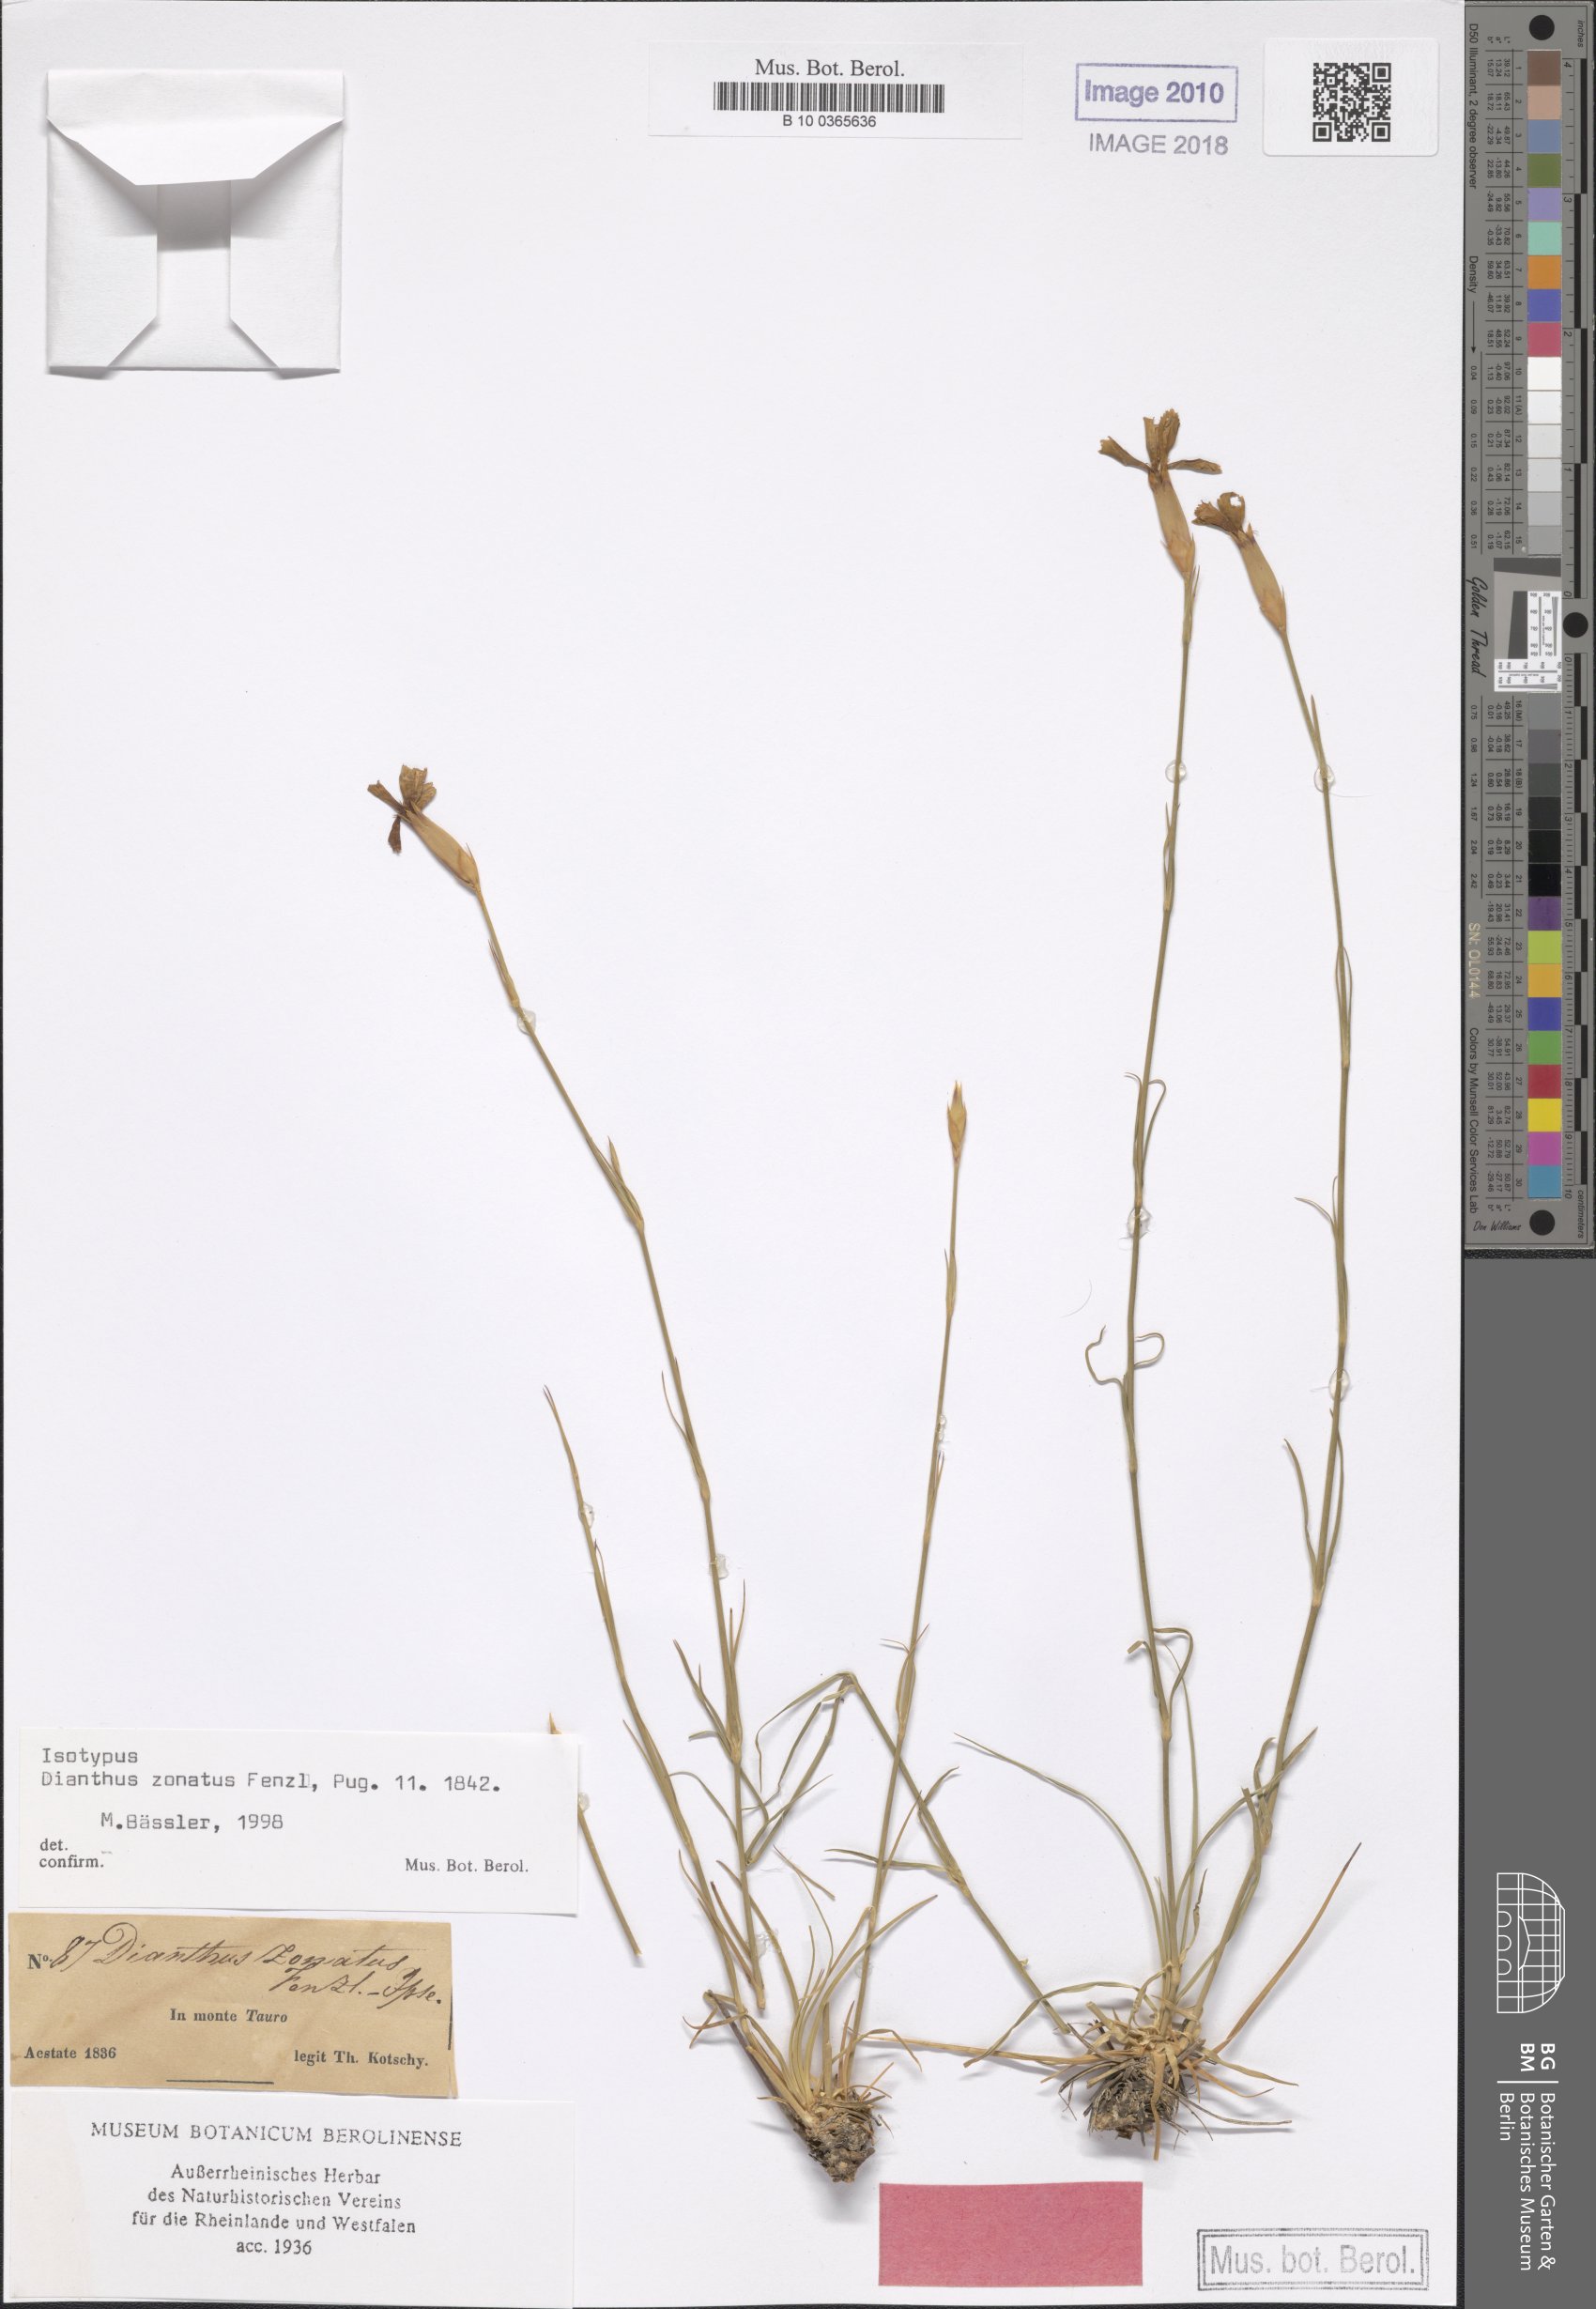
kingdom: Plantae
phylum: Tracheophyta
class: Magnoliopsida
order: Caryophyllales
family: Caryophyllaceae
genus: Dianthus
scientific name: Dianthus zonatus
